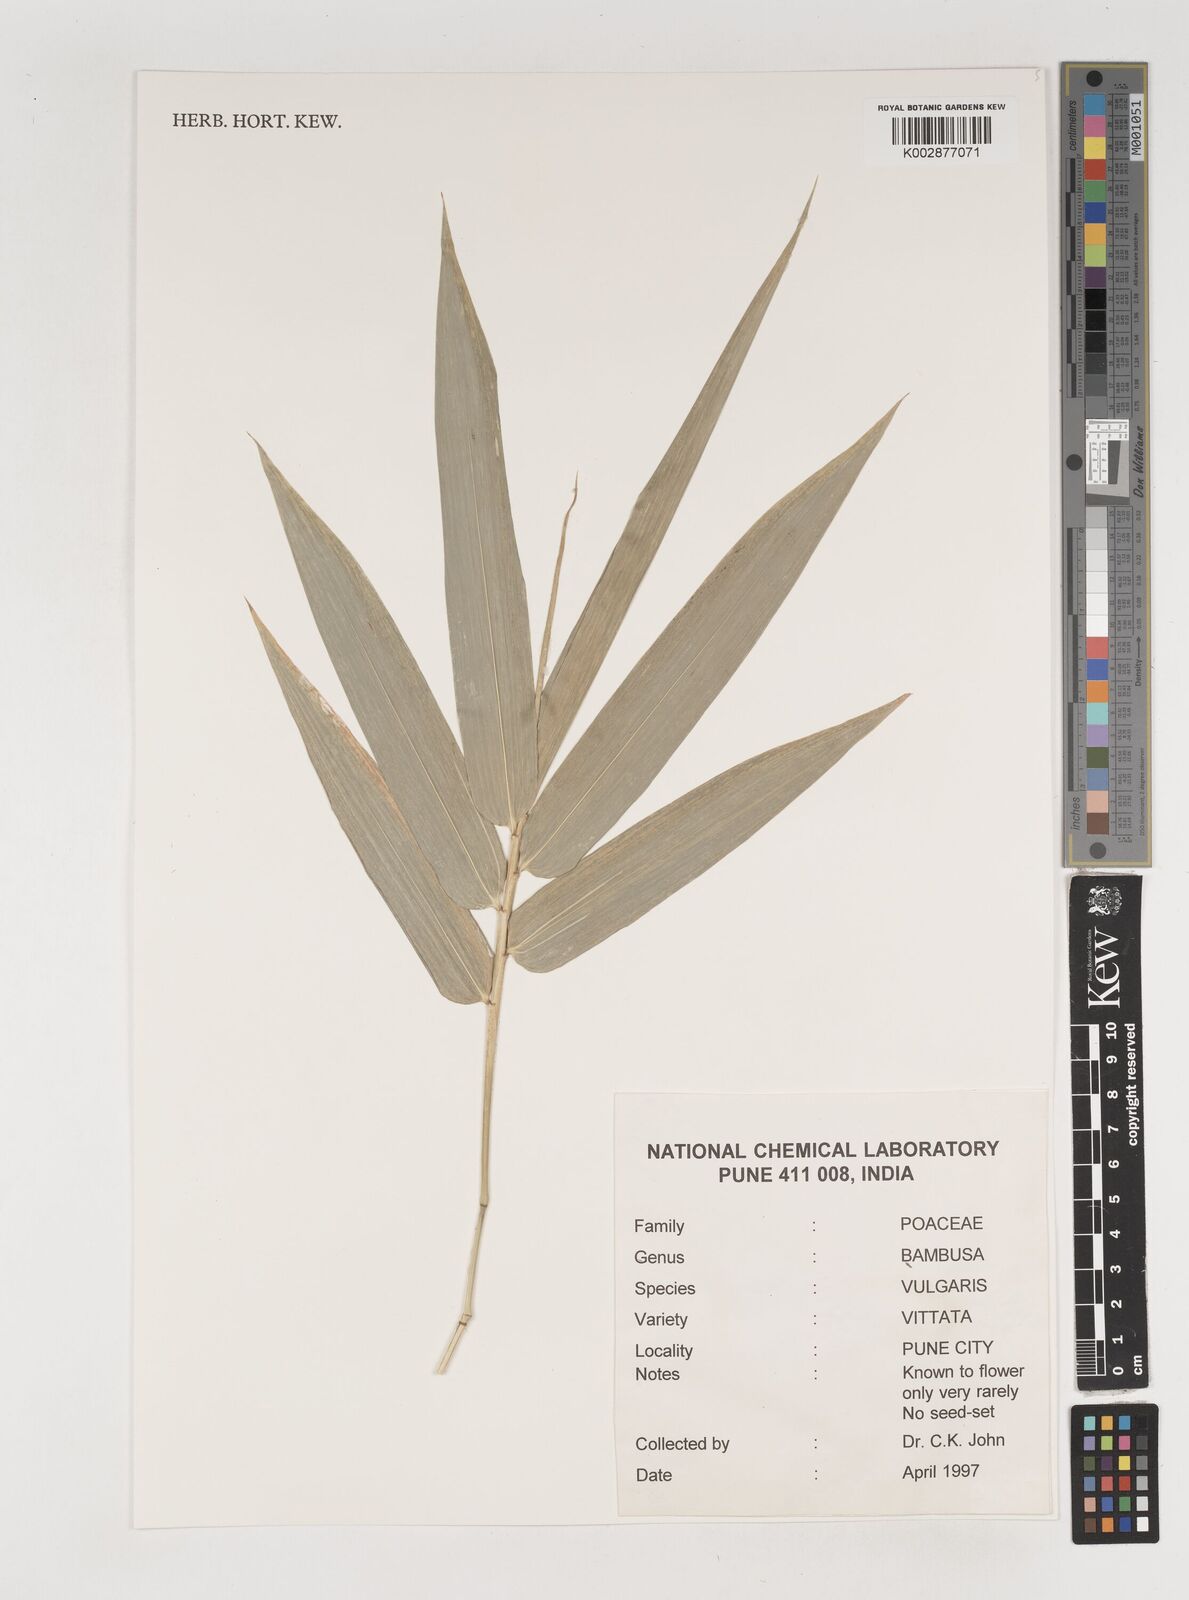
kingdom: Plantae
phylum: Tracheophyta
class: Liliopsida
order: Poales
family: Poaceae
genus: Bambusa
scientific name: Bambusa
